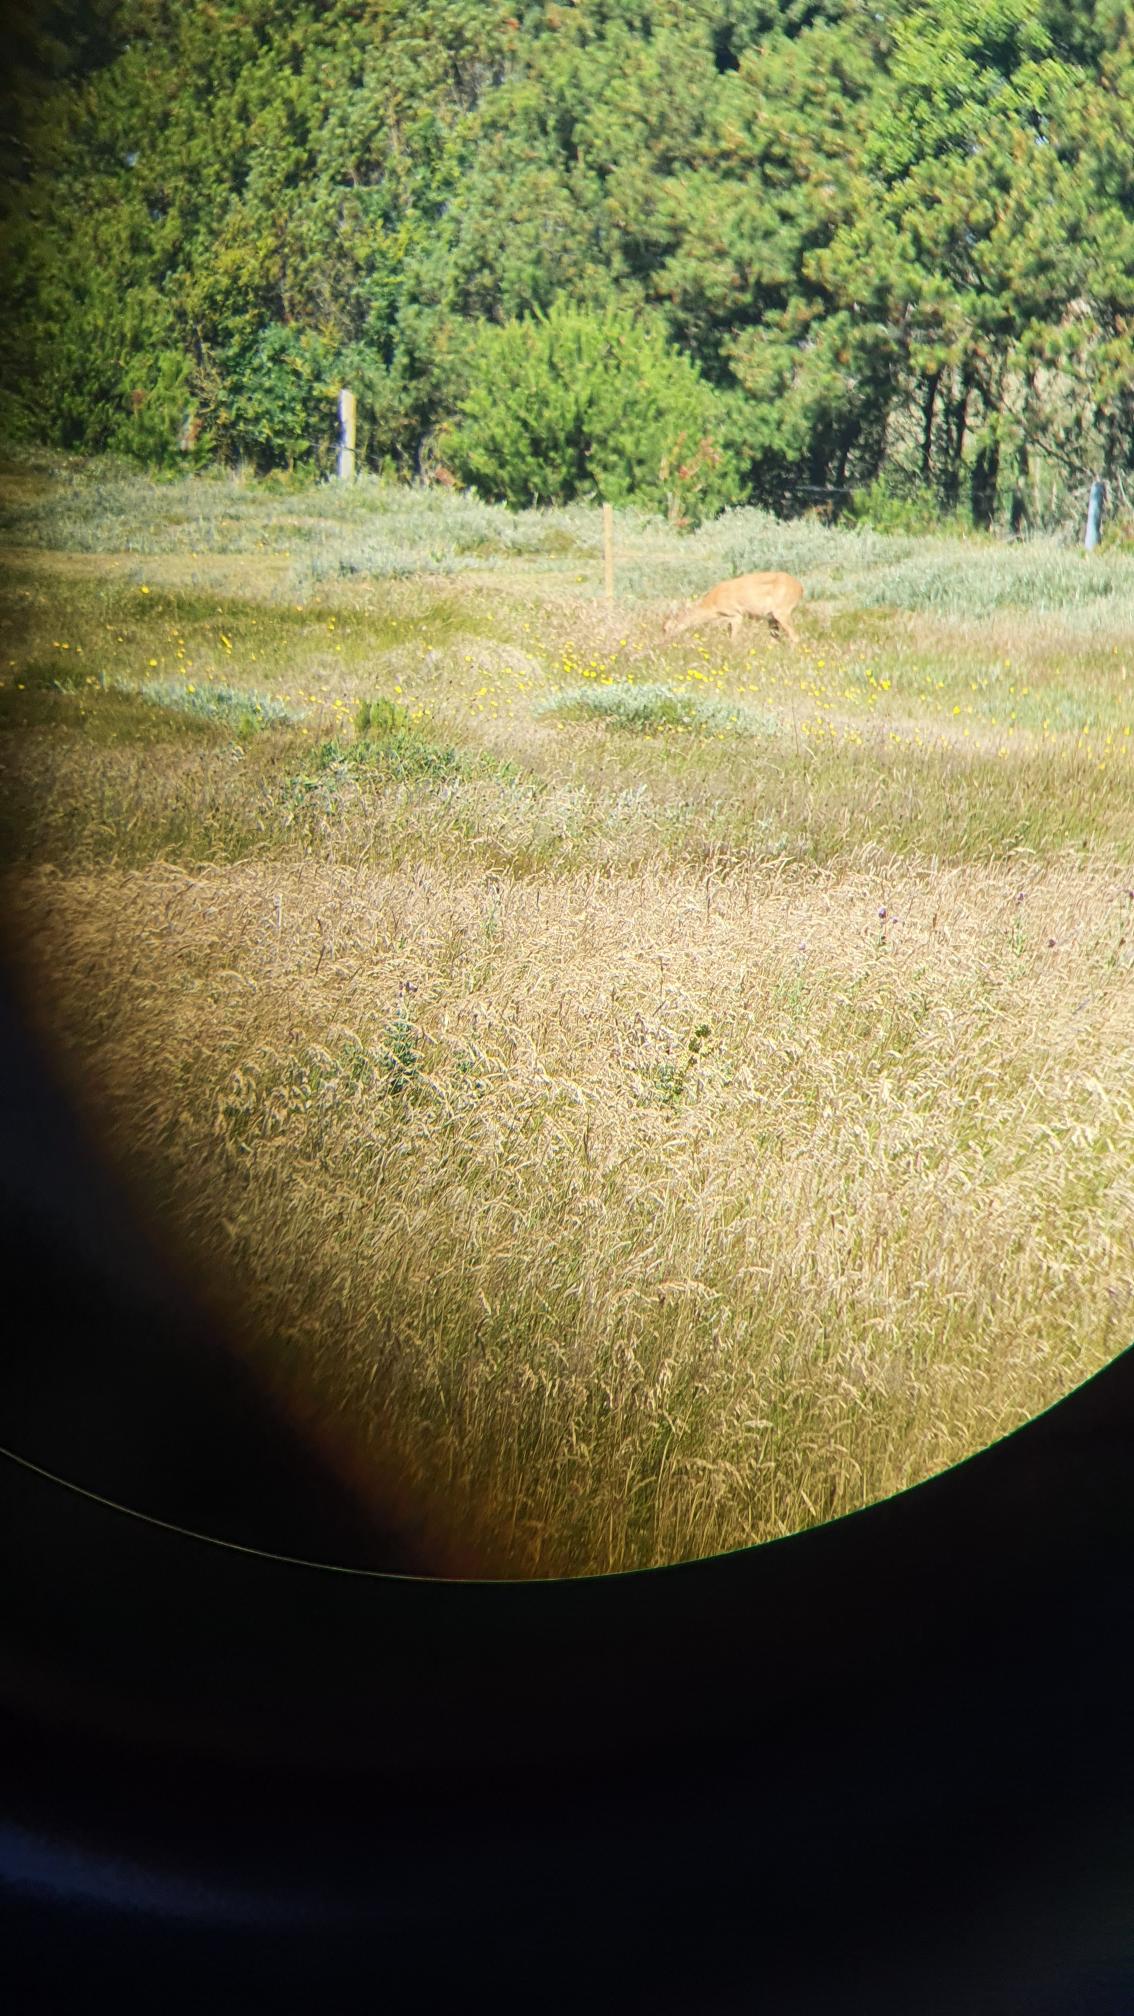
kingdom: Animalia
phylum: Chordata
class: Mammalia
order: Artiodactyla
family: Cervidae
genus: Capreolus
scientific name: Capreolus capreolus
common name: Rådyr
